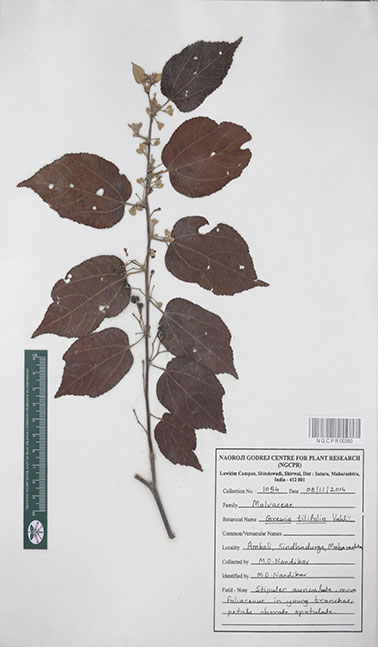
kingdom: Plantae
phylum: Tracheophyta
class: Magnoliopsida
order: Malvales
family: Malvaceae
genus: Grewia
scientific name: Grewia tiliifolia
